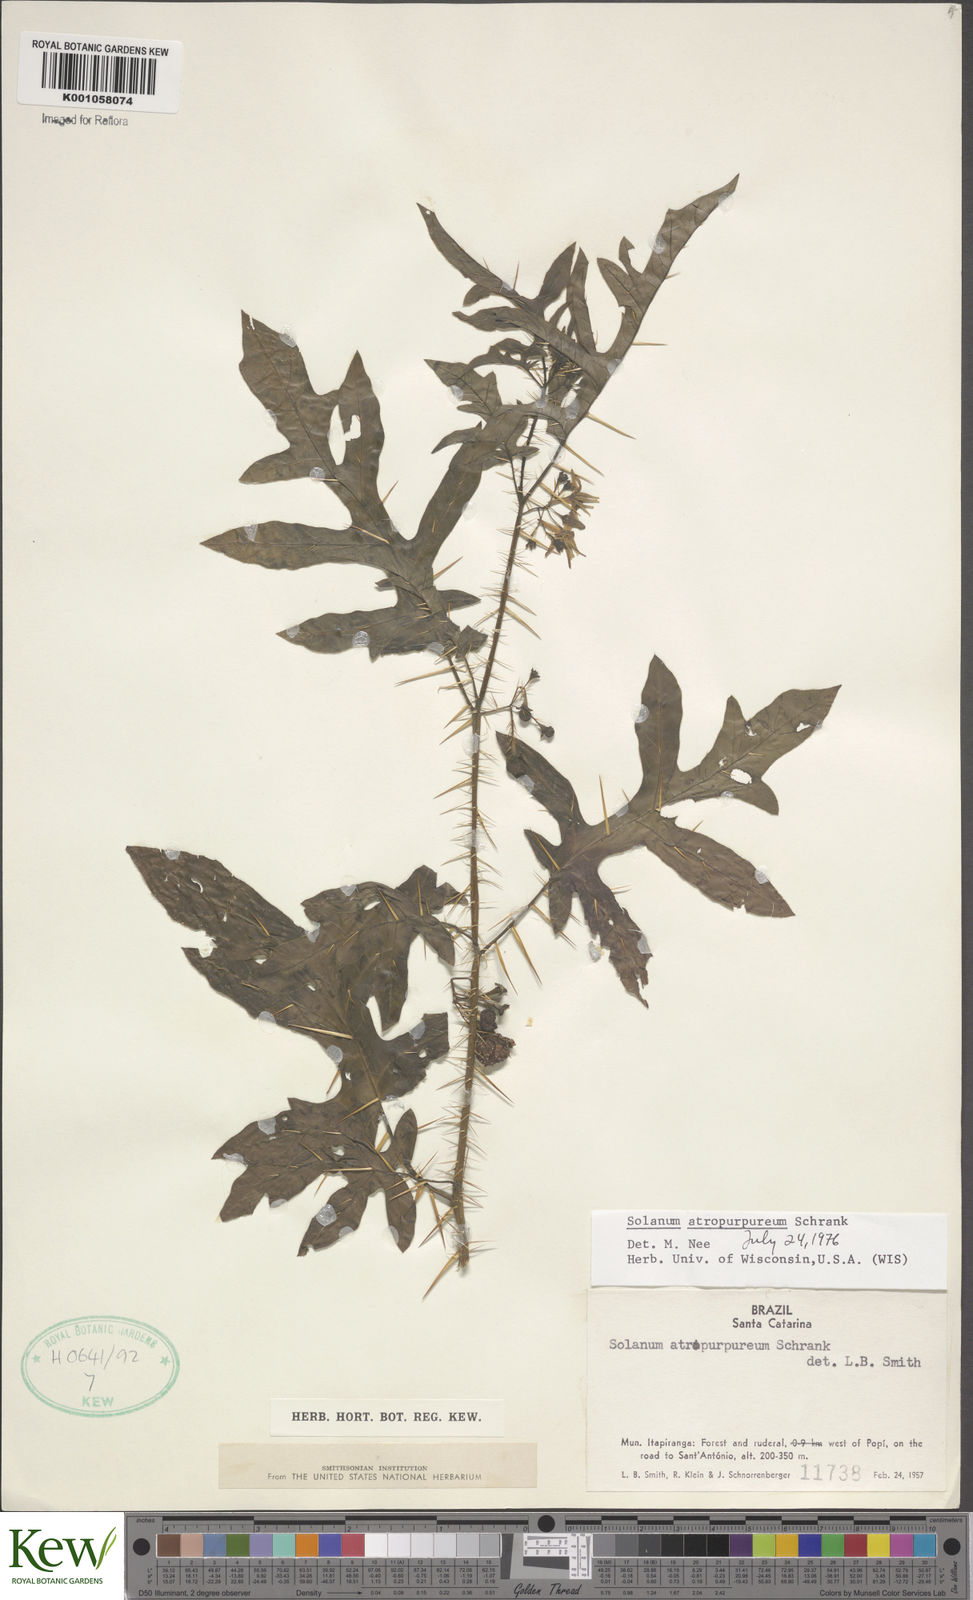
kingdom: Plantae
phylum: Tracheophyta
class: Magnoliopsida
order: Solanales
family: Solanaceae
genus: Solanum
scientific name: Solanum atropurpureum
